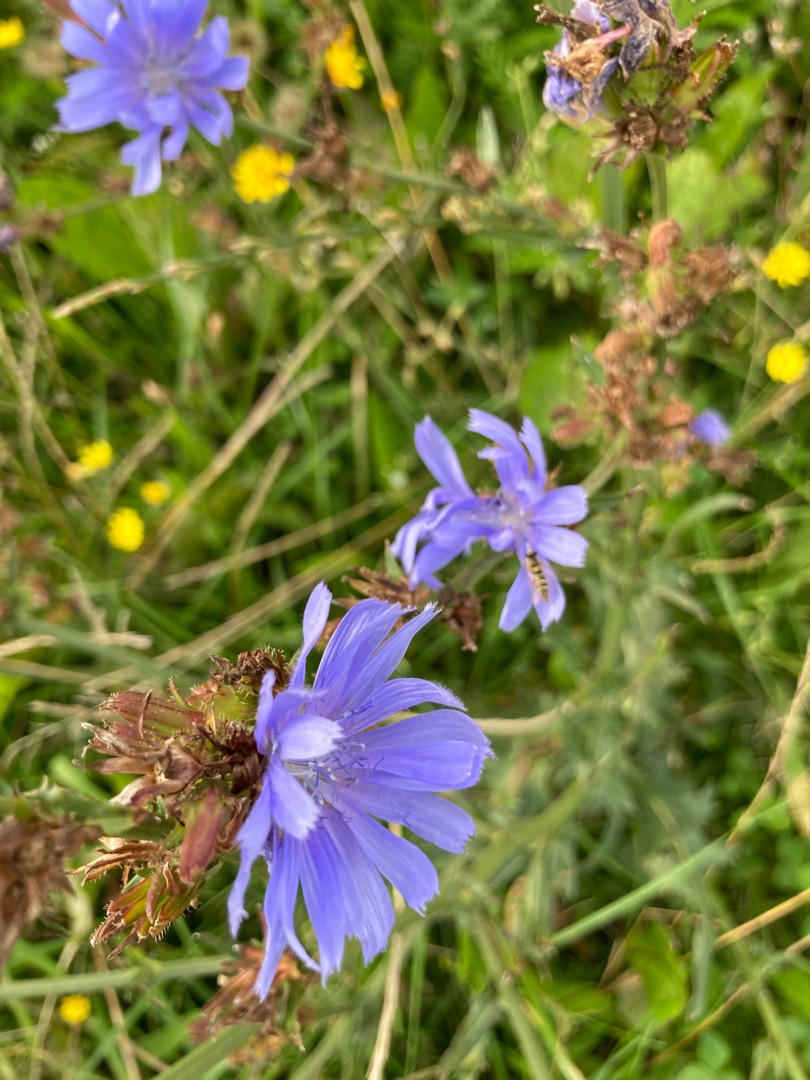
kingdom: Plantae
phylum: Tracheophyta
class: Magnoliopsida
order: Asterales
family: Asteraceae
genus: Cichorium
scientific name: Cichorium intybus
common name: Cikorie
